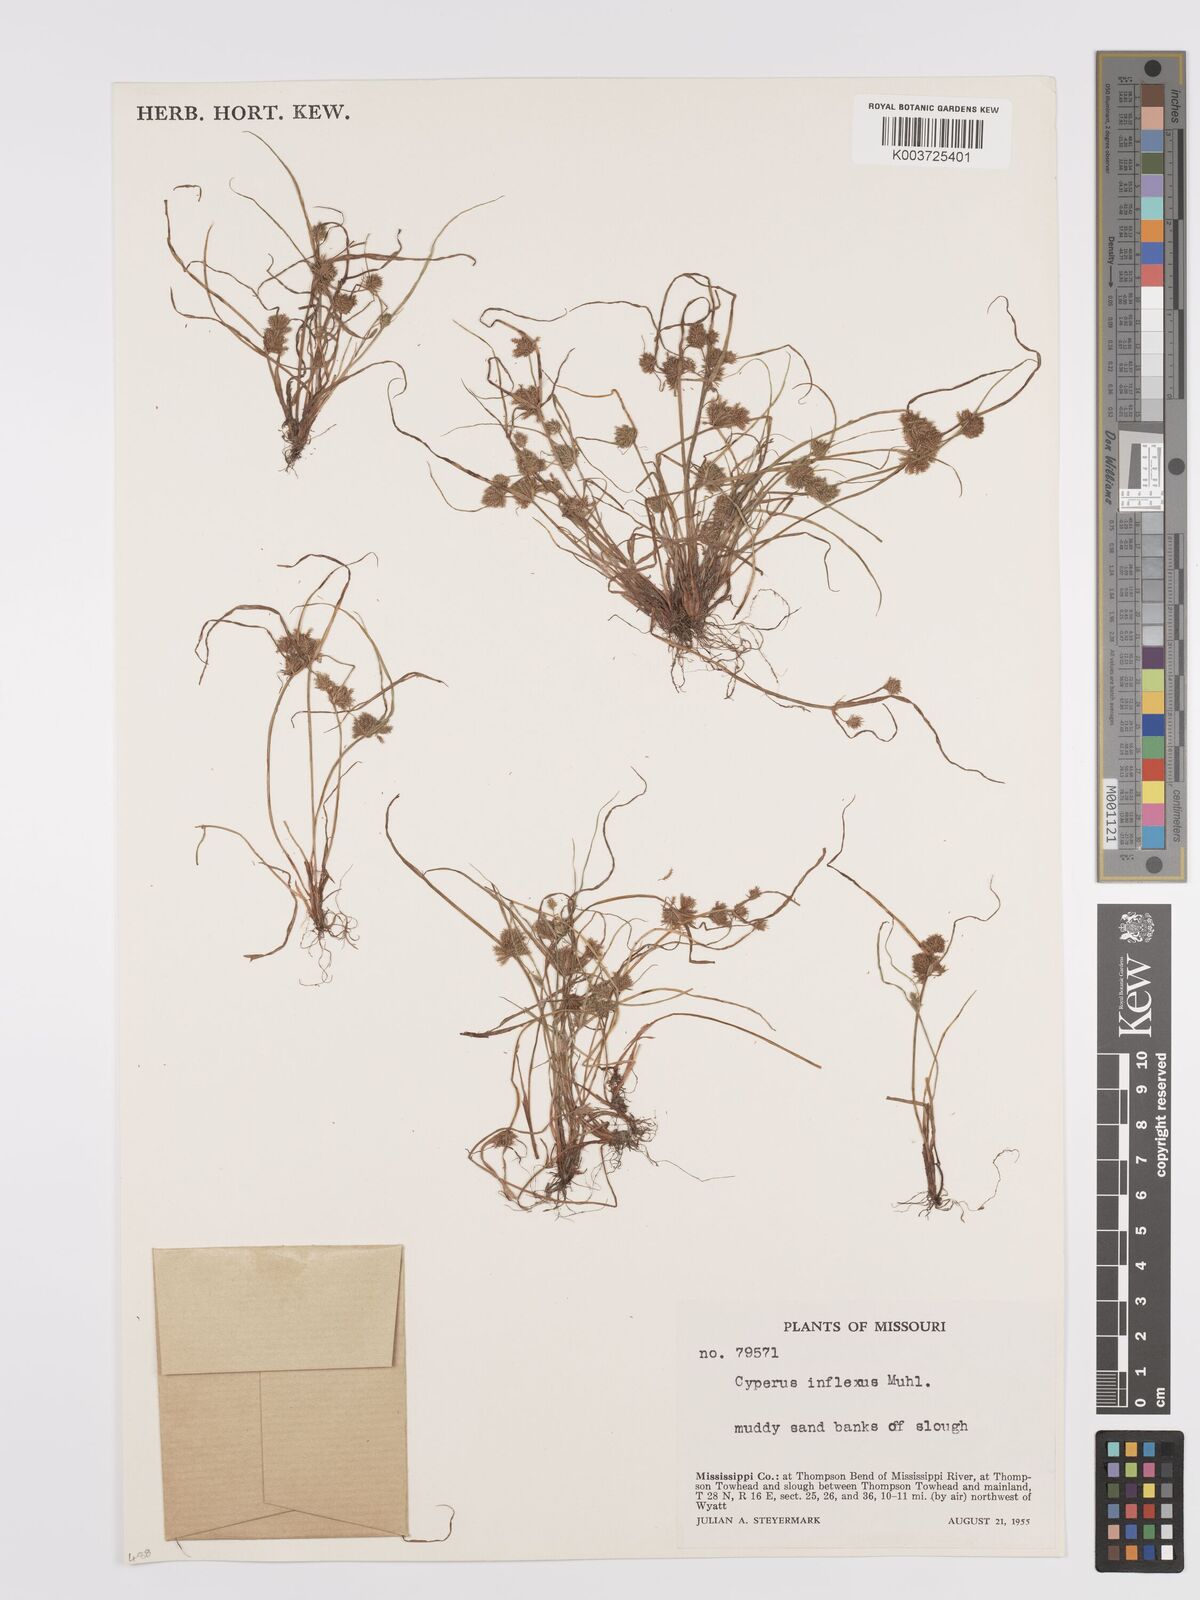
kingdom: Plantae
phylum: Tracheophyta
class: Liliopsida
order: Poales
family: Cyperaceae
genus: Cyperus
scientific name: Cyperus squarrosus
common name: Awned cyperus
